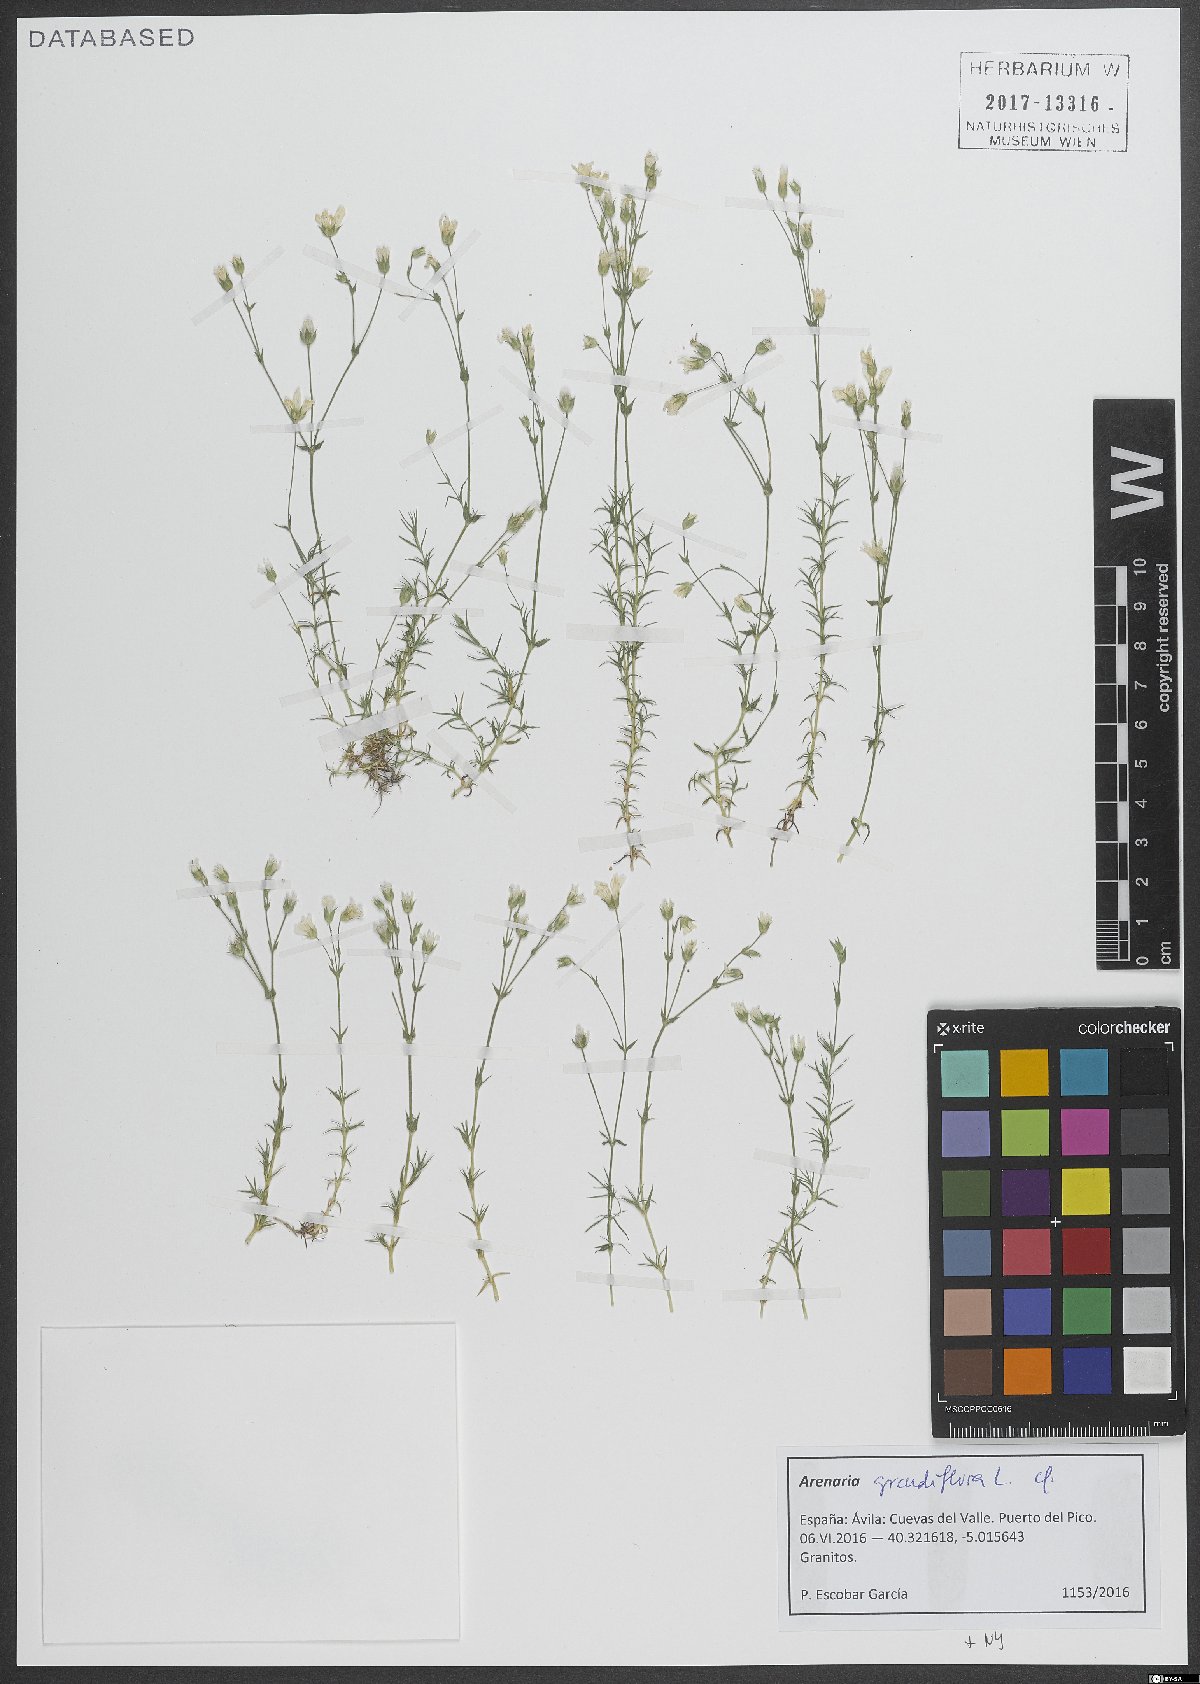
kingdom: Plantae
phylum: Tracheophyta
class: Magnoliopsida
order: Caryophyllales
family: Caryophyllaceae
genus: Arenaria
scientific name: Arenaria grandiflora
